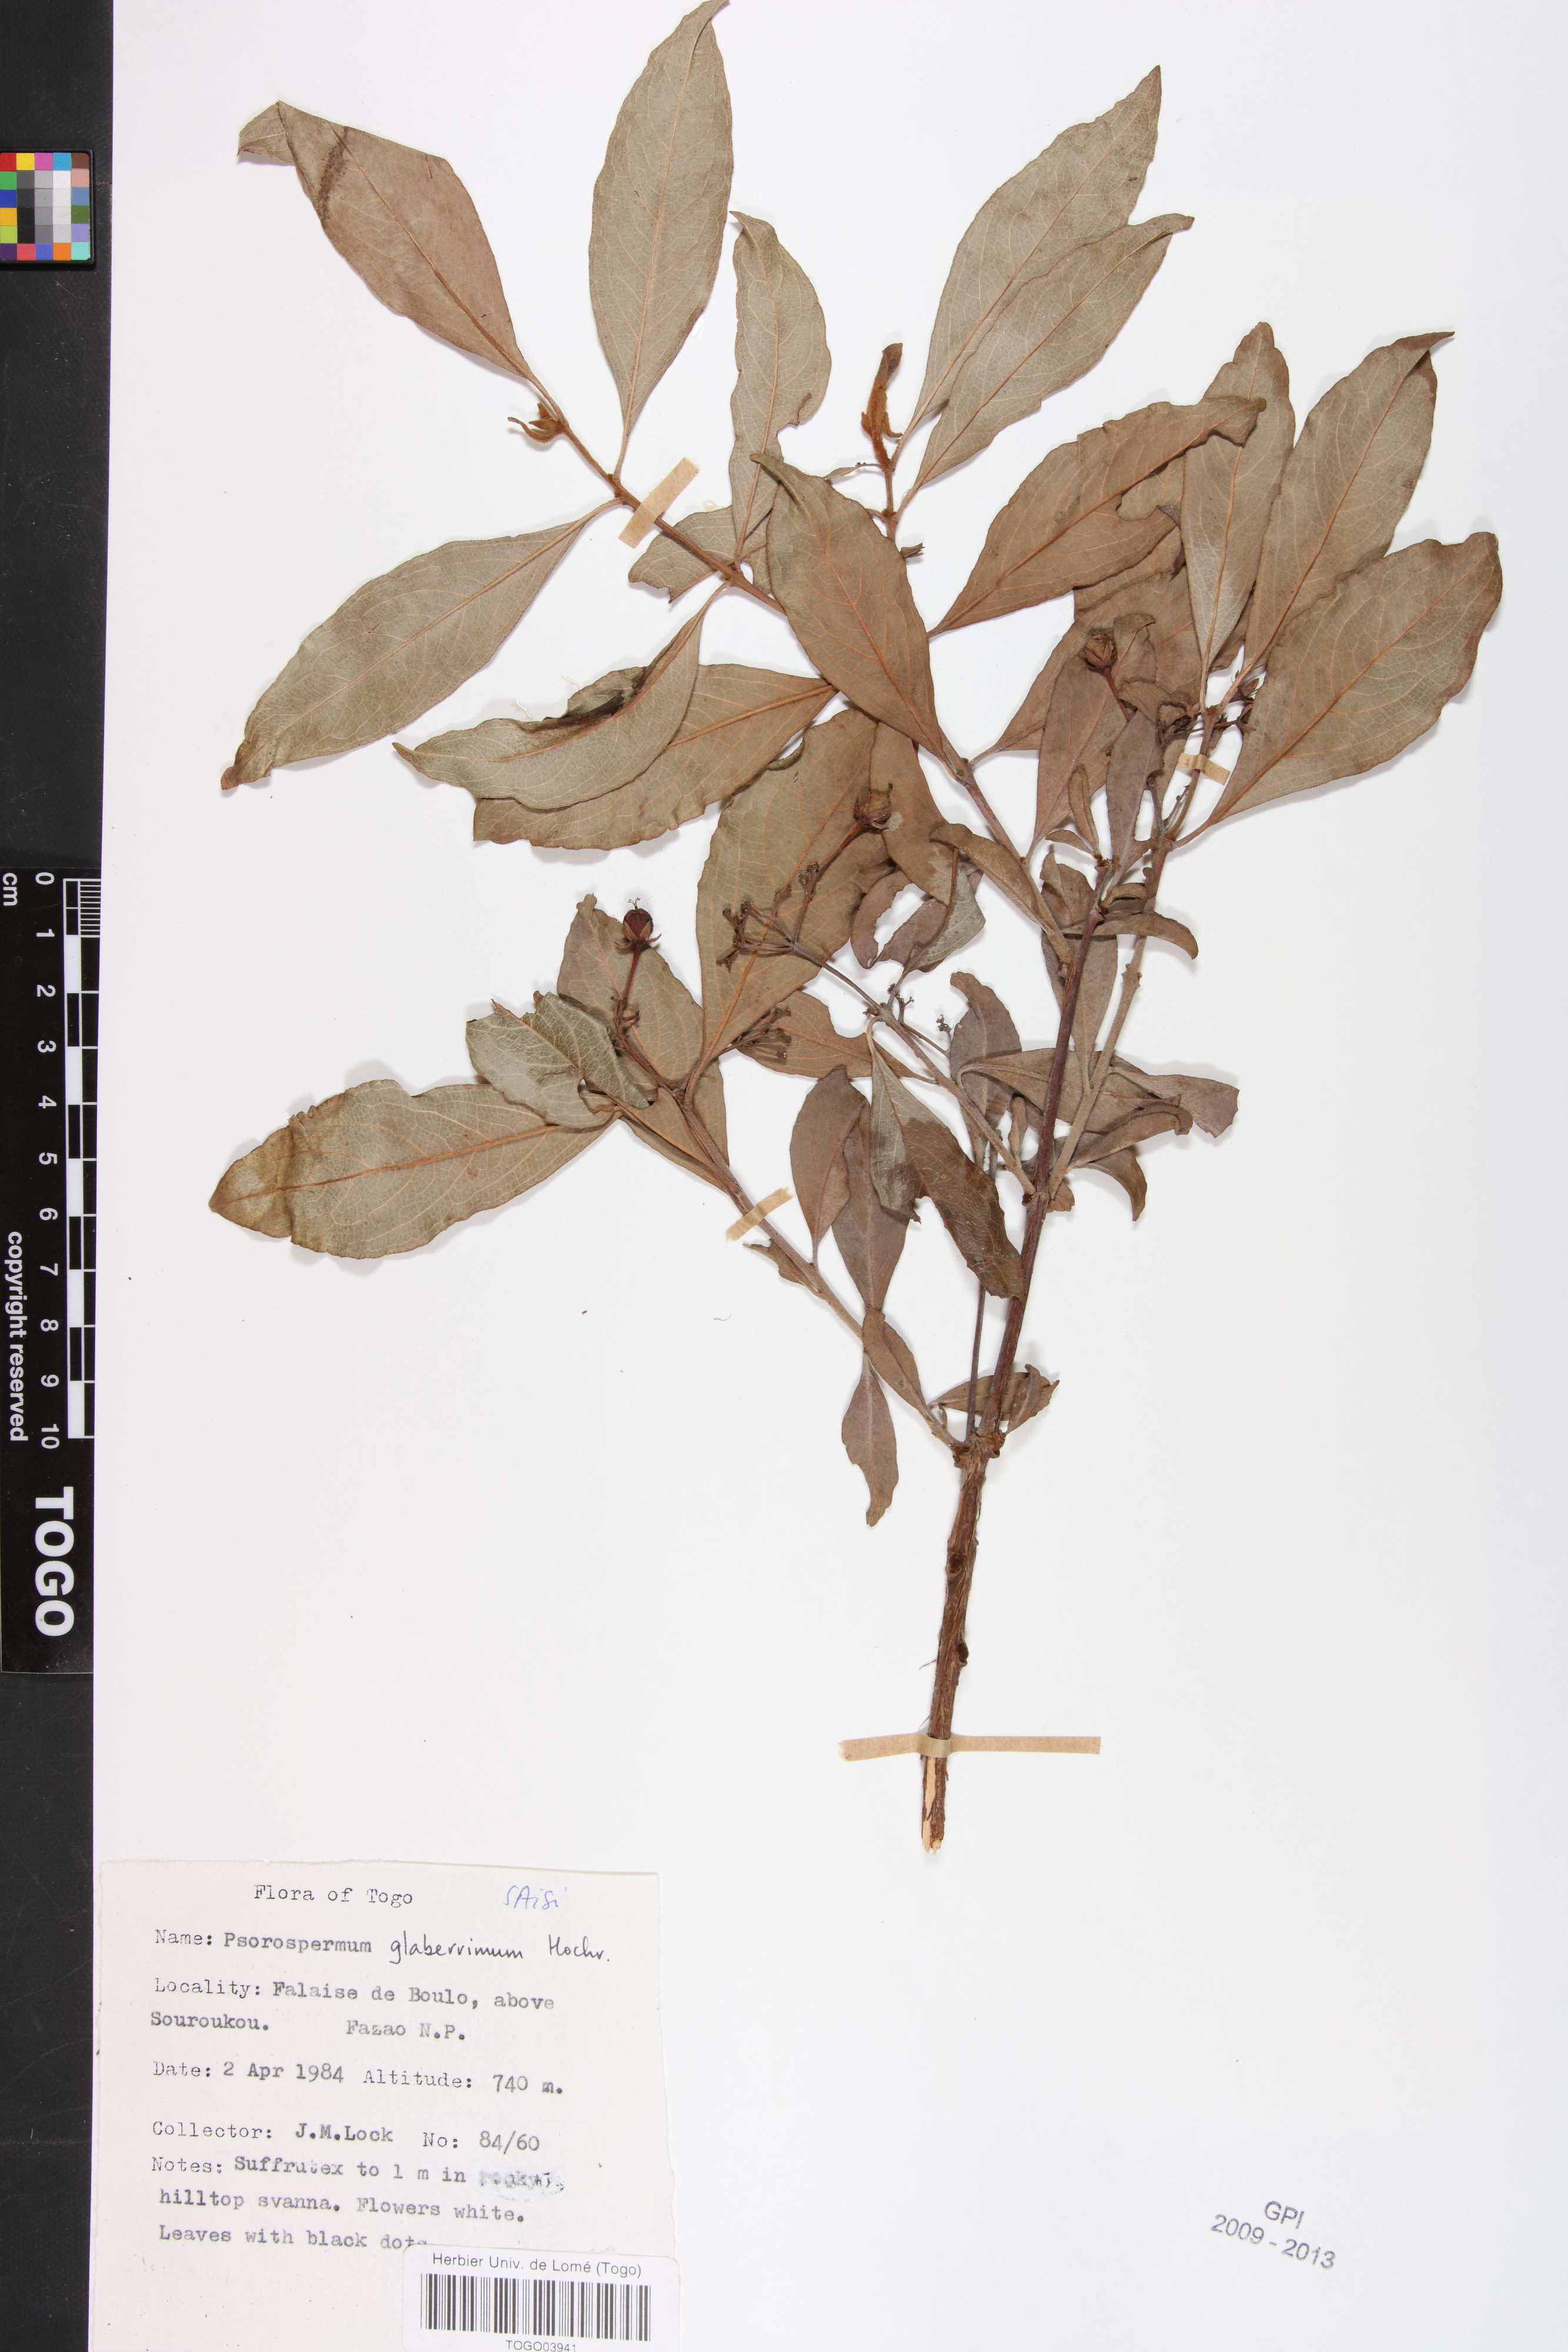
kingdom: Plantae
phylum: Tracheophyta
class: Magnoliopsida
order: Malpighiales
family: Hypericaceae
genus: Psorospermum
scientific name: Psorospermum glaberrimum
